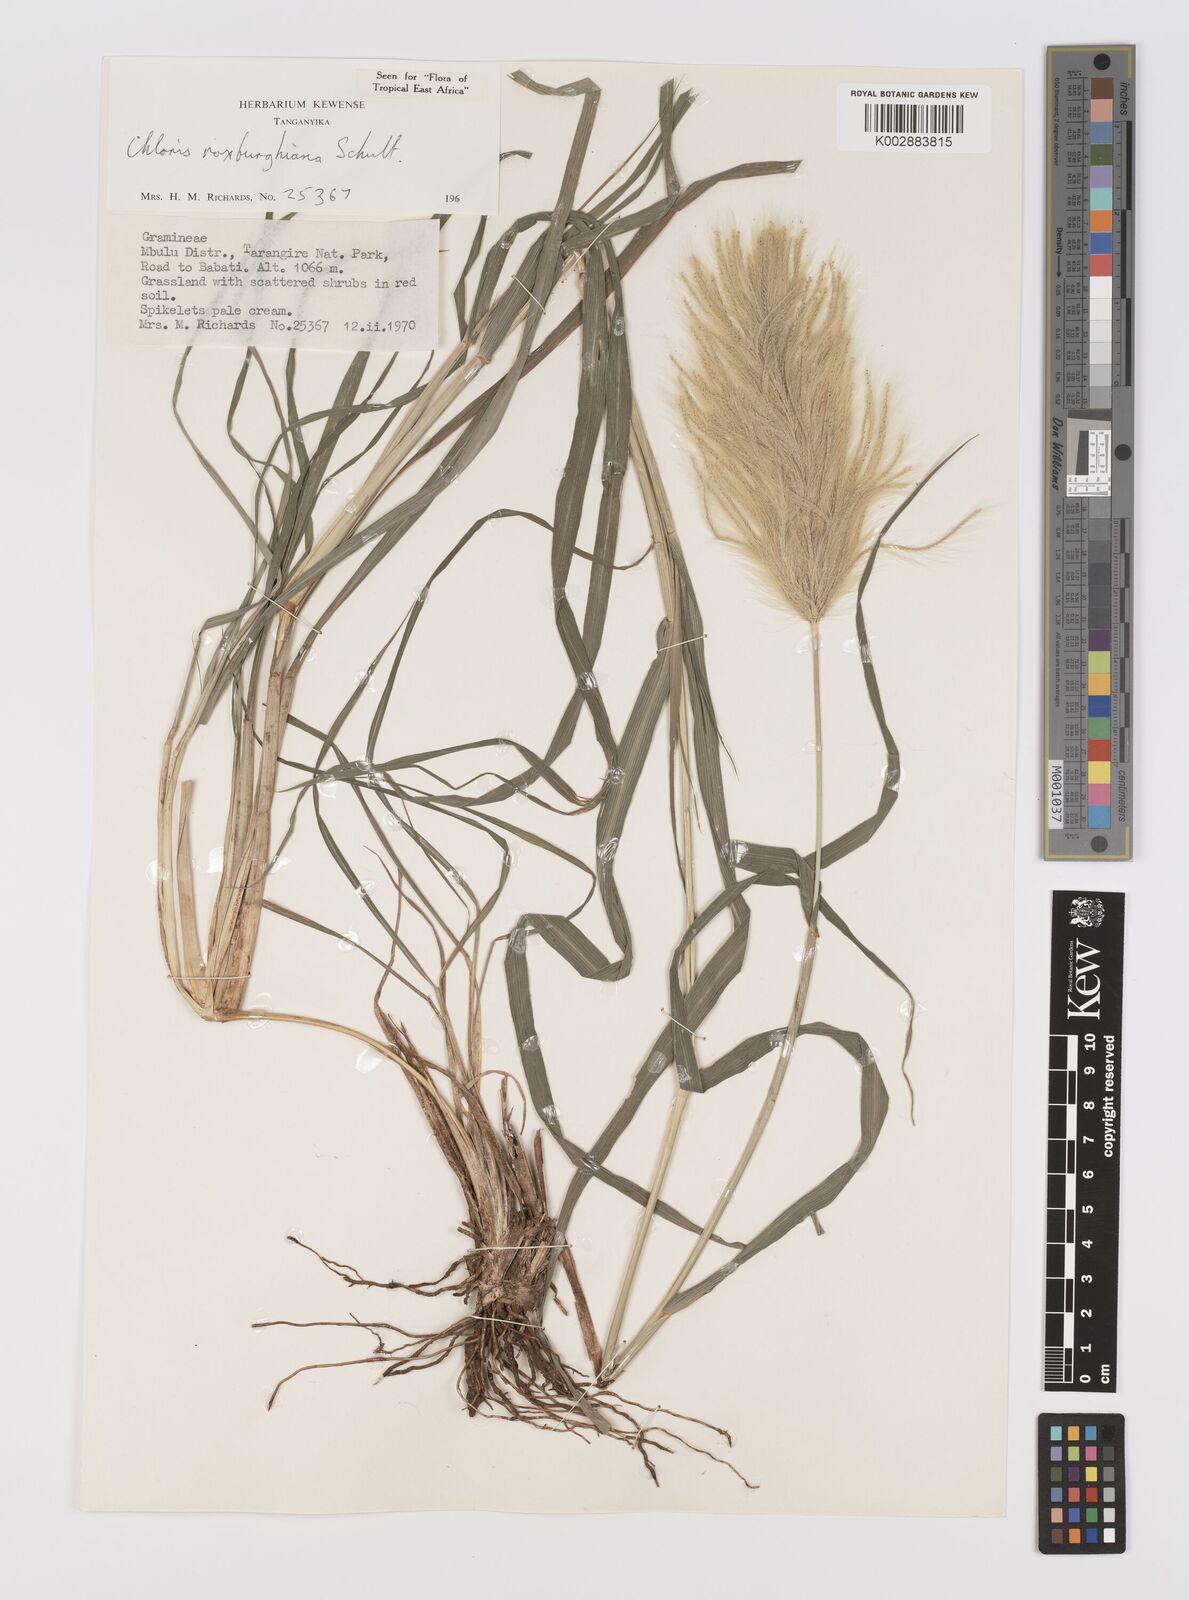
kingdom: Plantae
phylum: Tracheophyta
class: Liliopsida
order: Poales
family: Poaceae
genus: Tetrapogon
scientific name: Tetrapogon roxburghiana
